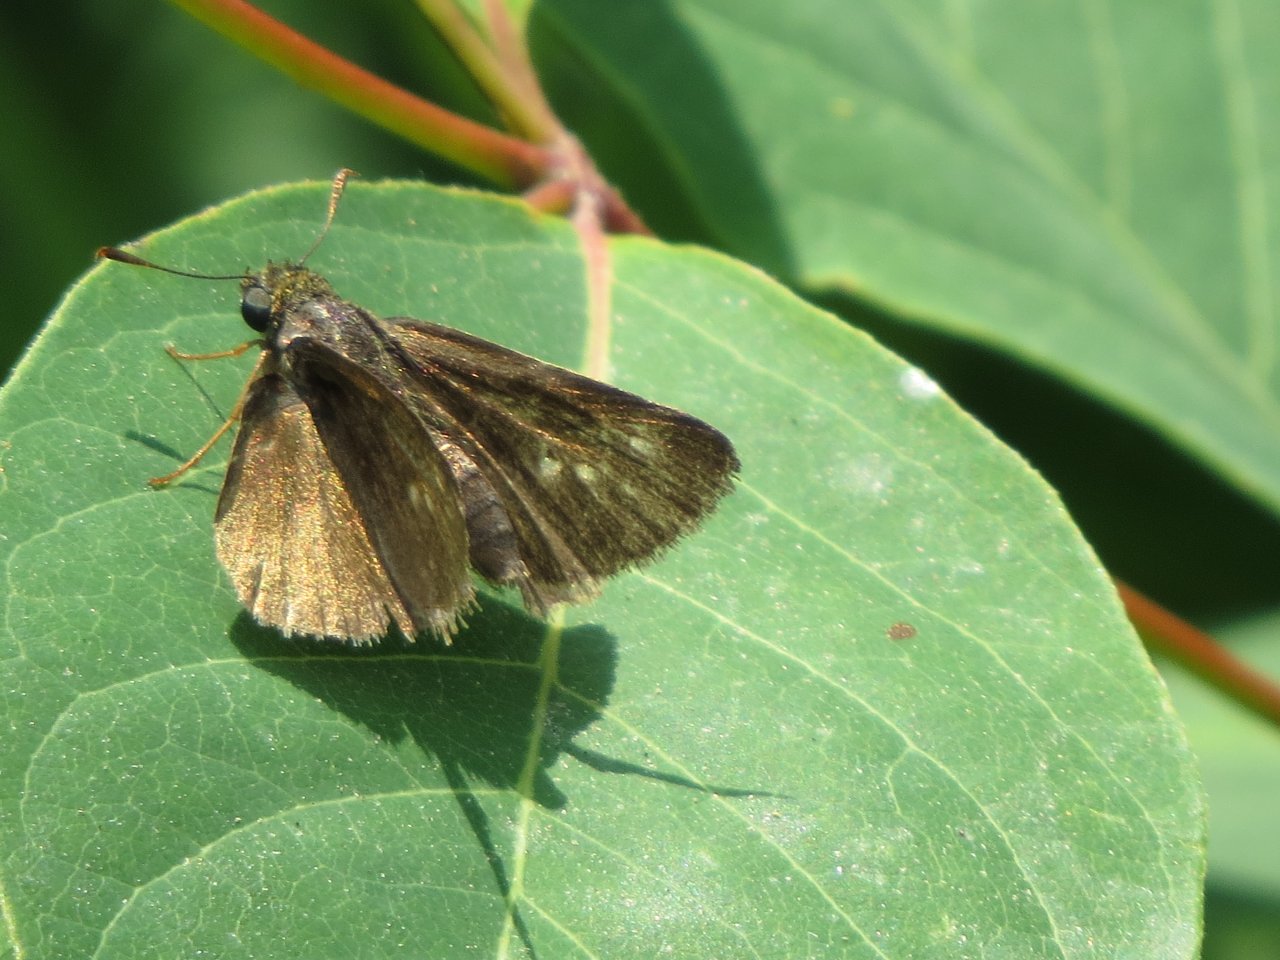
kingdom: Animalia
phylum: Arthropoda
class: Insecta
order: Lepidoptera
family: Hesperiidae
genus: Euphyes
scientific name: Euphyes vestris
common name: Dun Skipper
